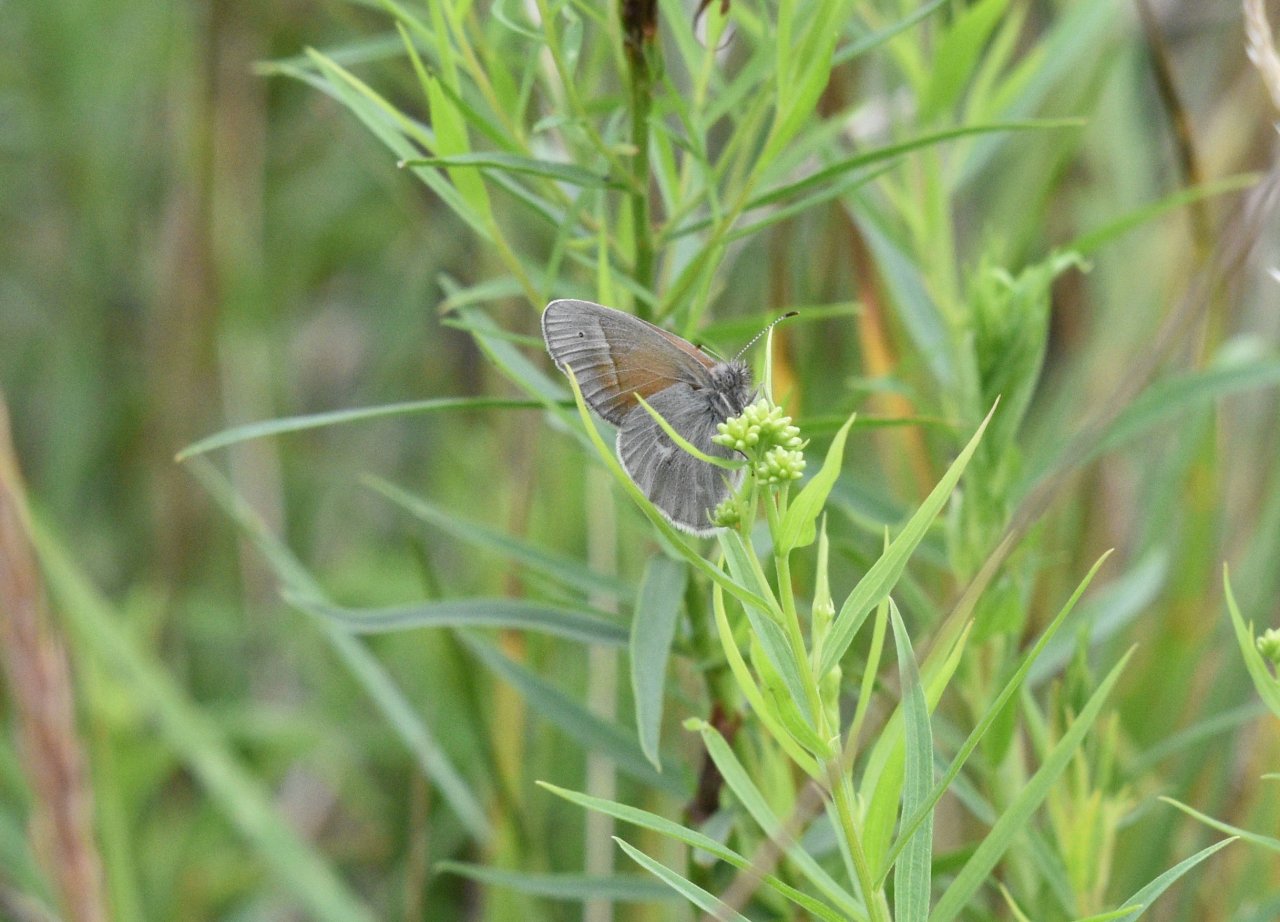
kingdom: Animalia
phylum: Arthropoda
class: Insecta
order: Lepidoptera
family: Nymphalidae
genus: Coenonympha
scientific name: Coenonympha tullia
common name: Large Heath
